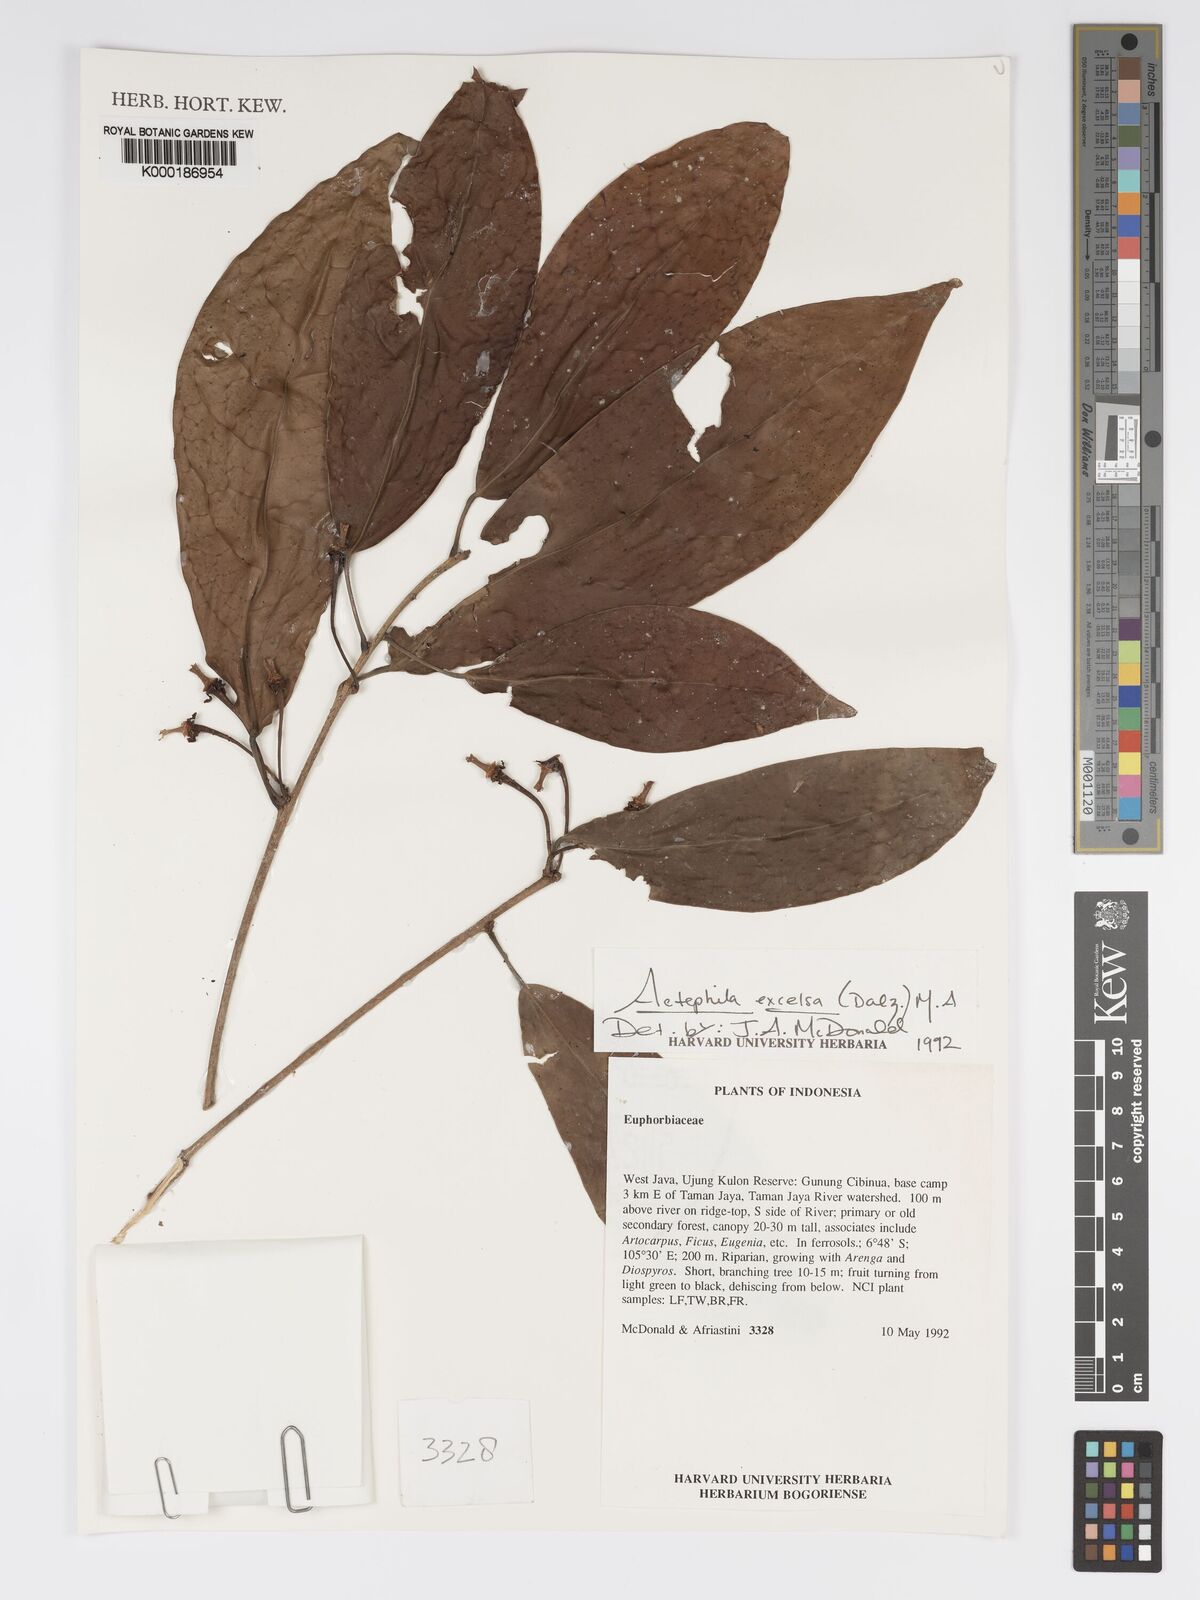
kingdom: Plantae
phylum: Tracheophyta
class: Magnoliopsida
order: Malpighiales
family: Phyllanthaceae
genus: Actephila
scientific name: Actephila
